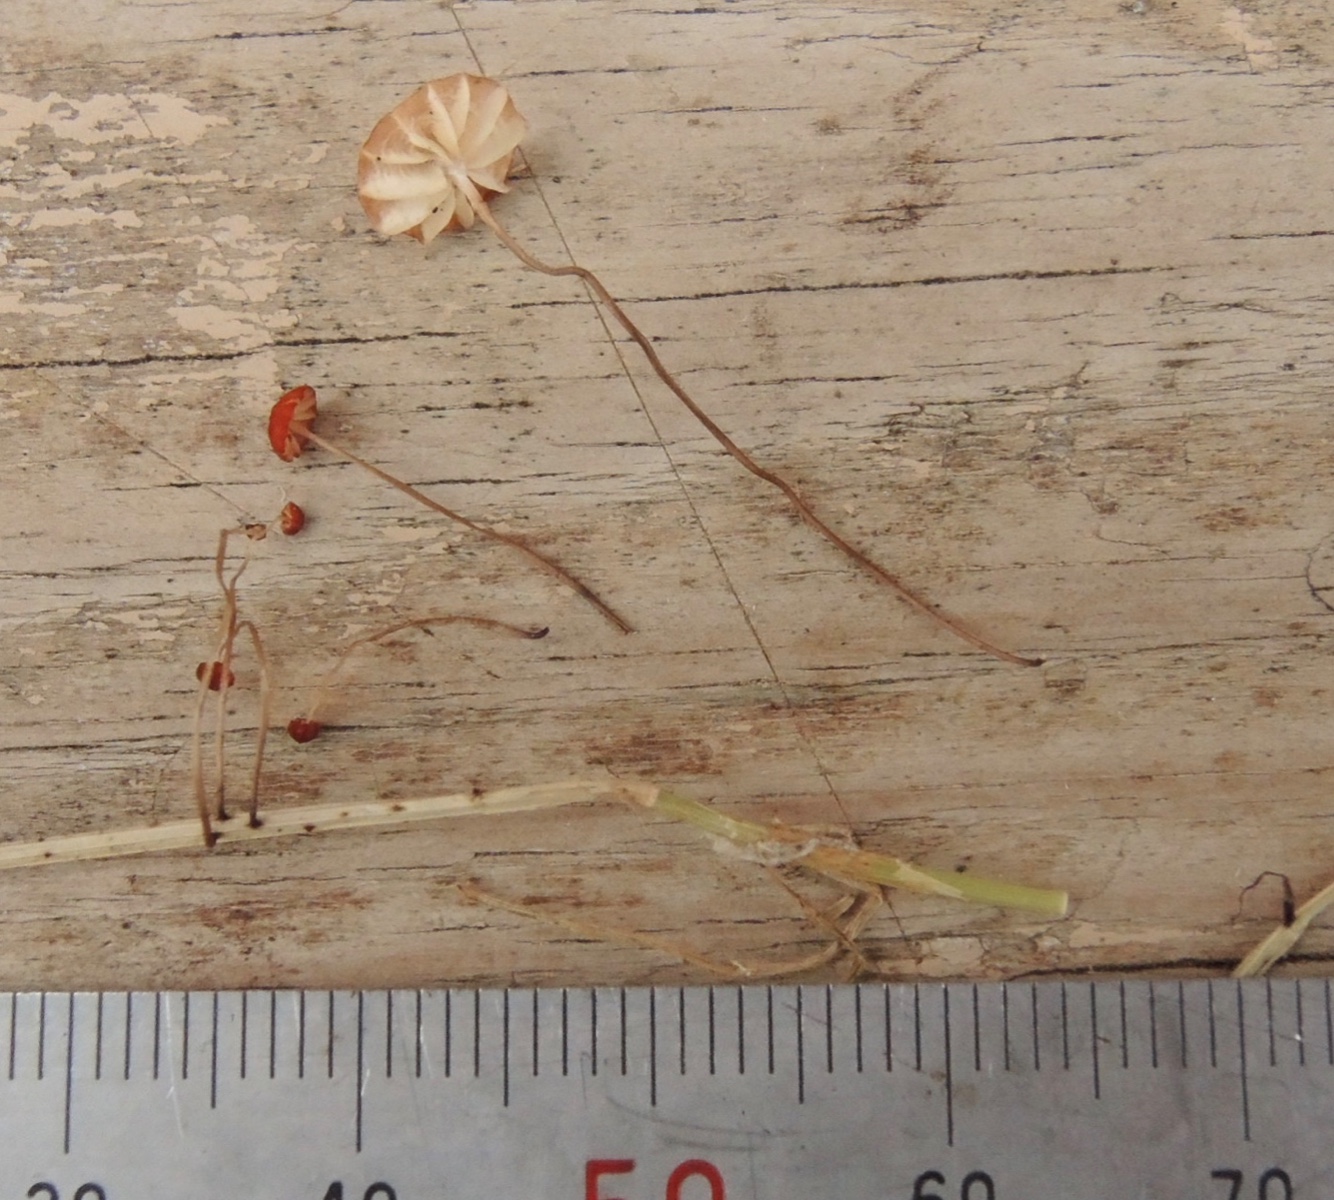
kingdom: Fungi
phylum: Basidiomycota
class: Agaricomycetes
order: Agaricales
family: Marasmiaceae
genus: Marasmius
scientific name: Marasmius curreyi
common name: teglrød bruskhat
